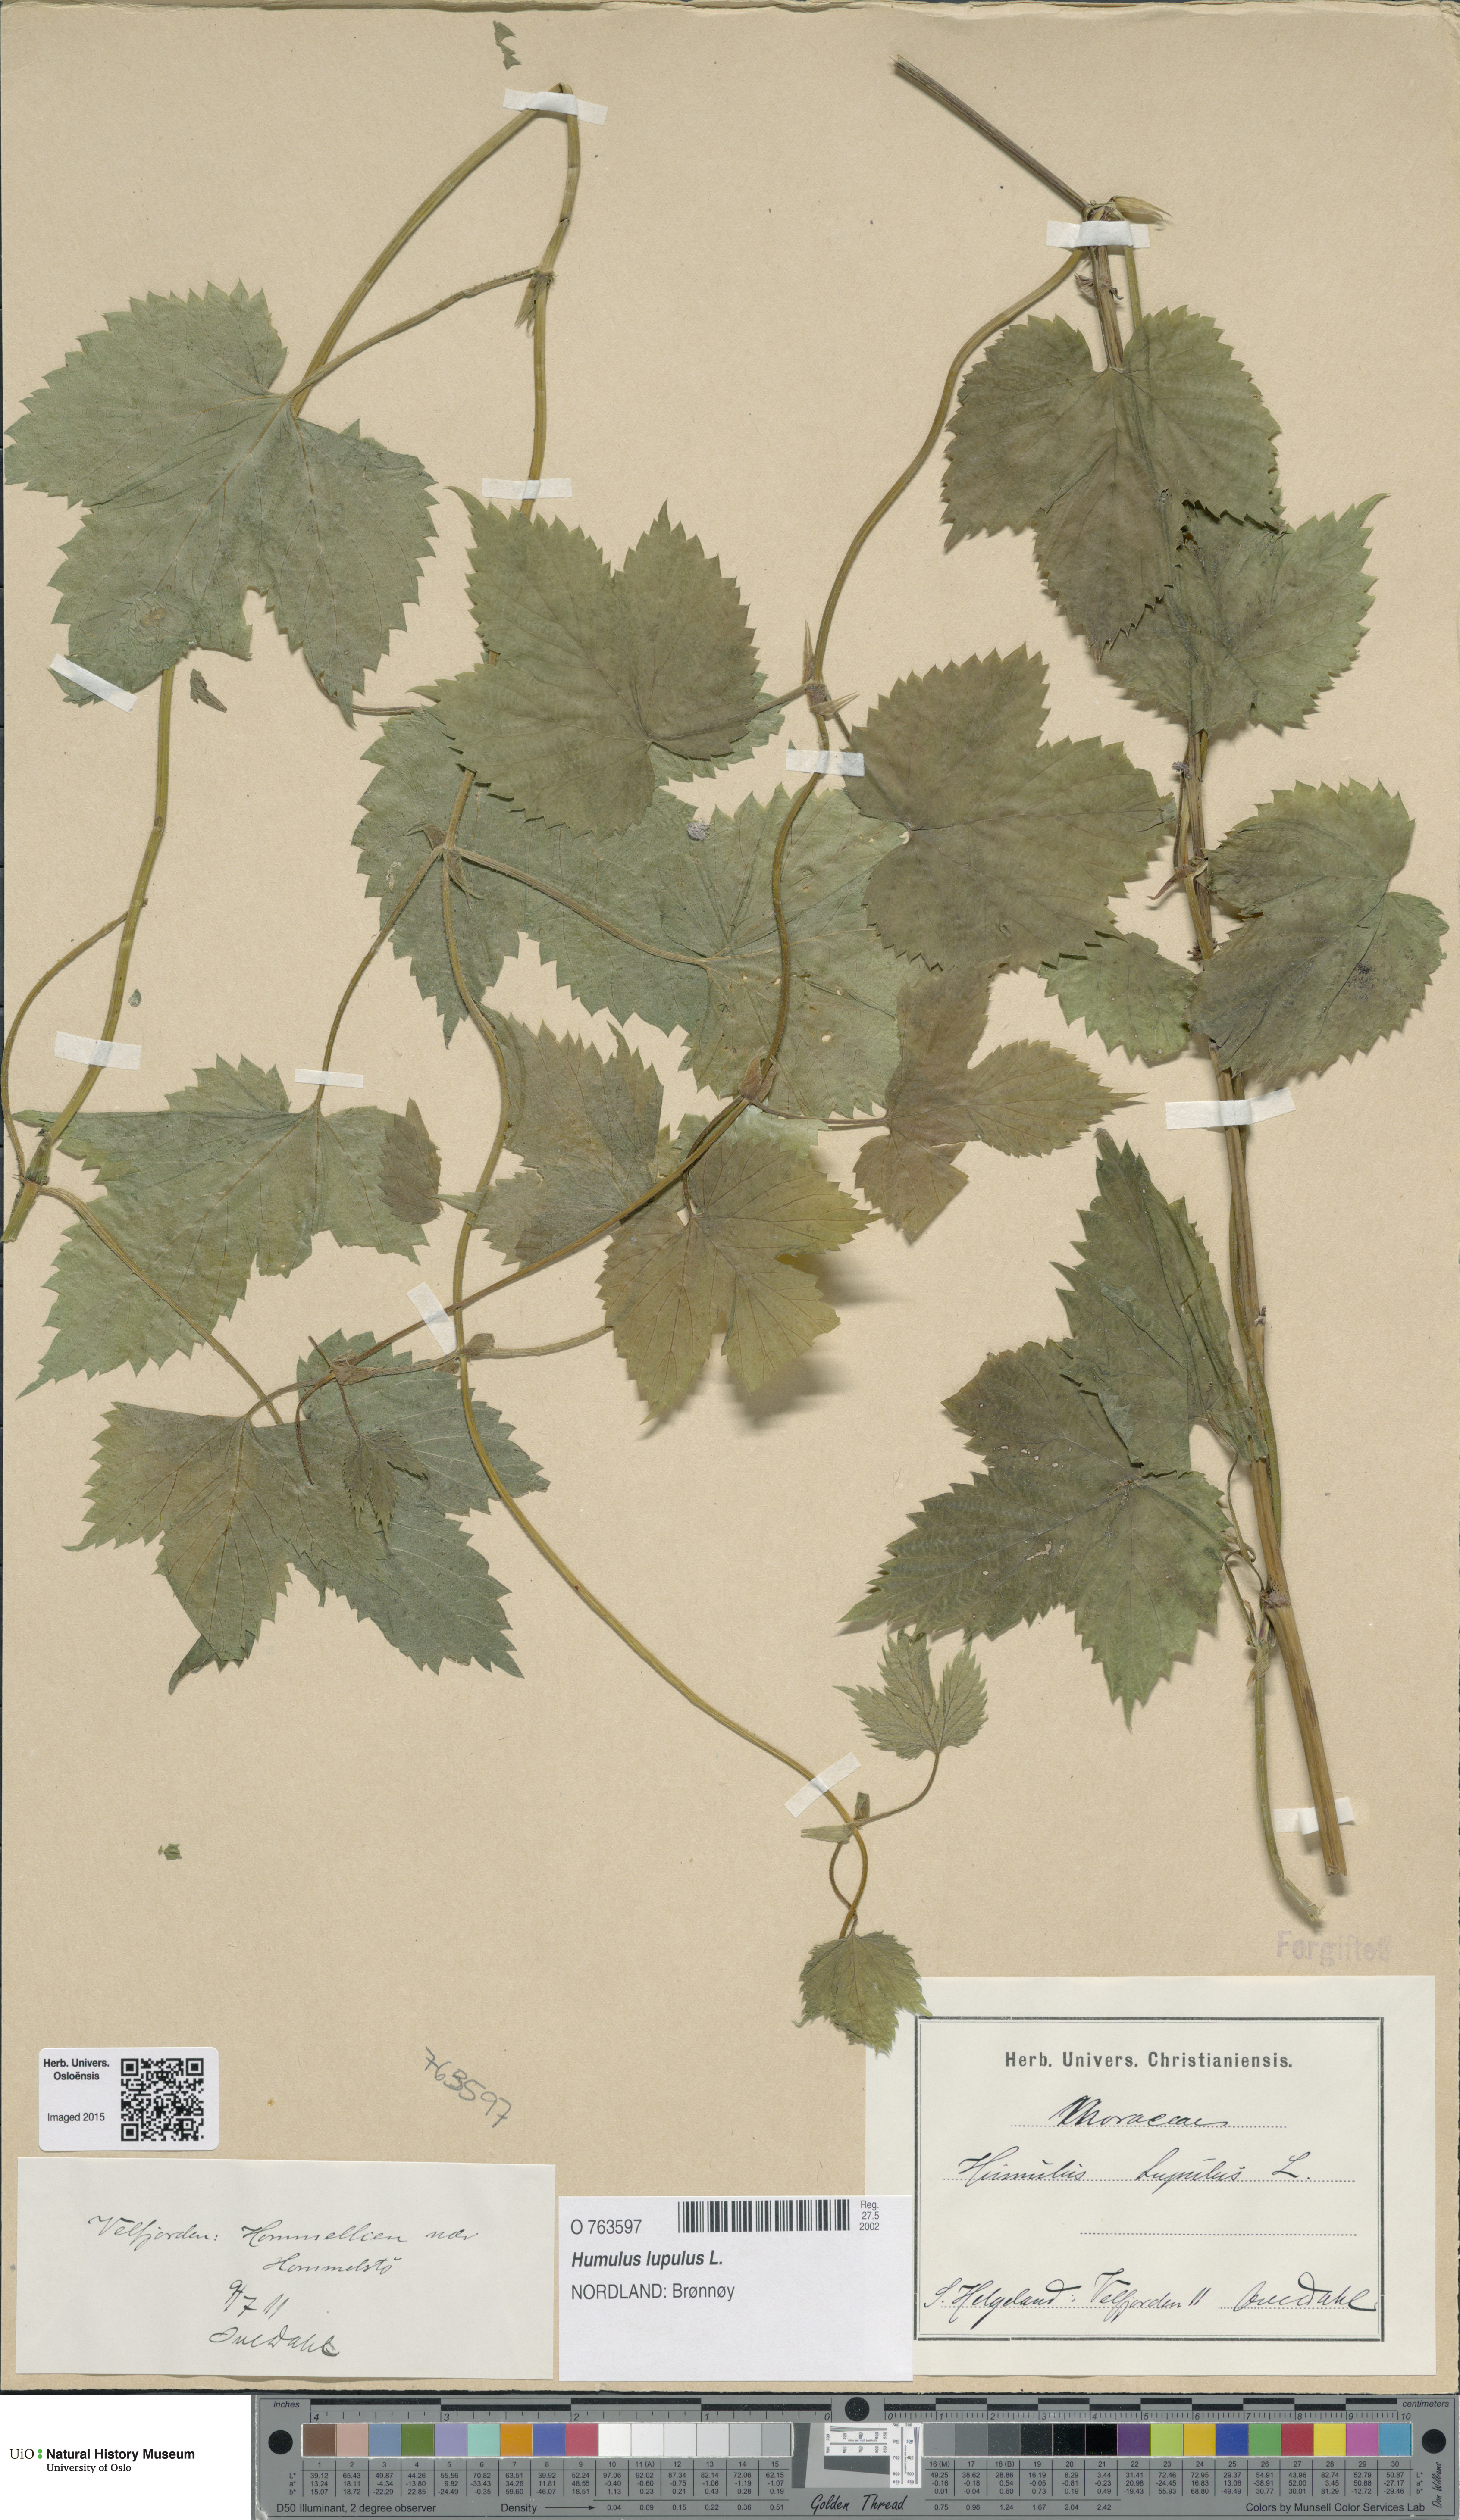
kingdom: Plantae
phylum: Tracheophyta
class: Magnoliopsida
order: Rosales
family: Cannabaceae
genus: Humulus
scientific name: Humulus lupulus
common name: Hop
